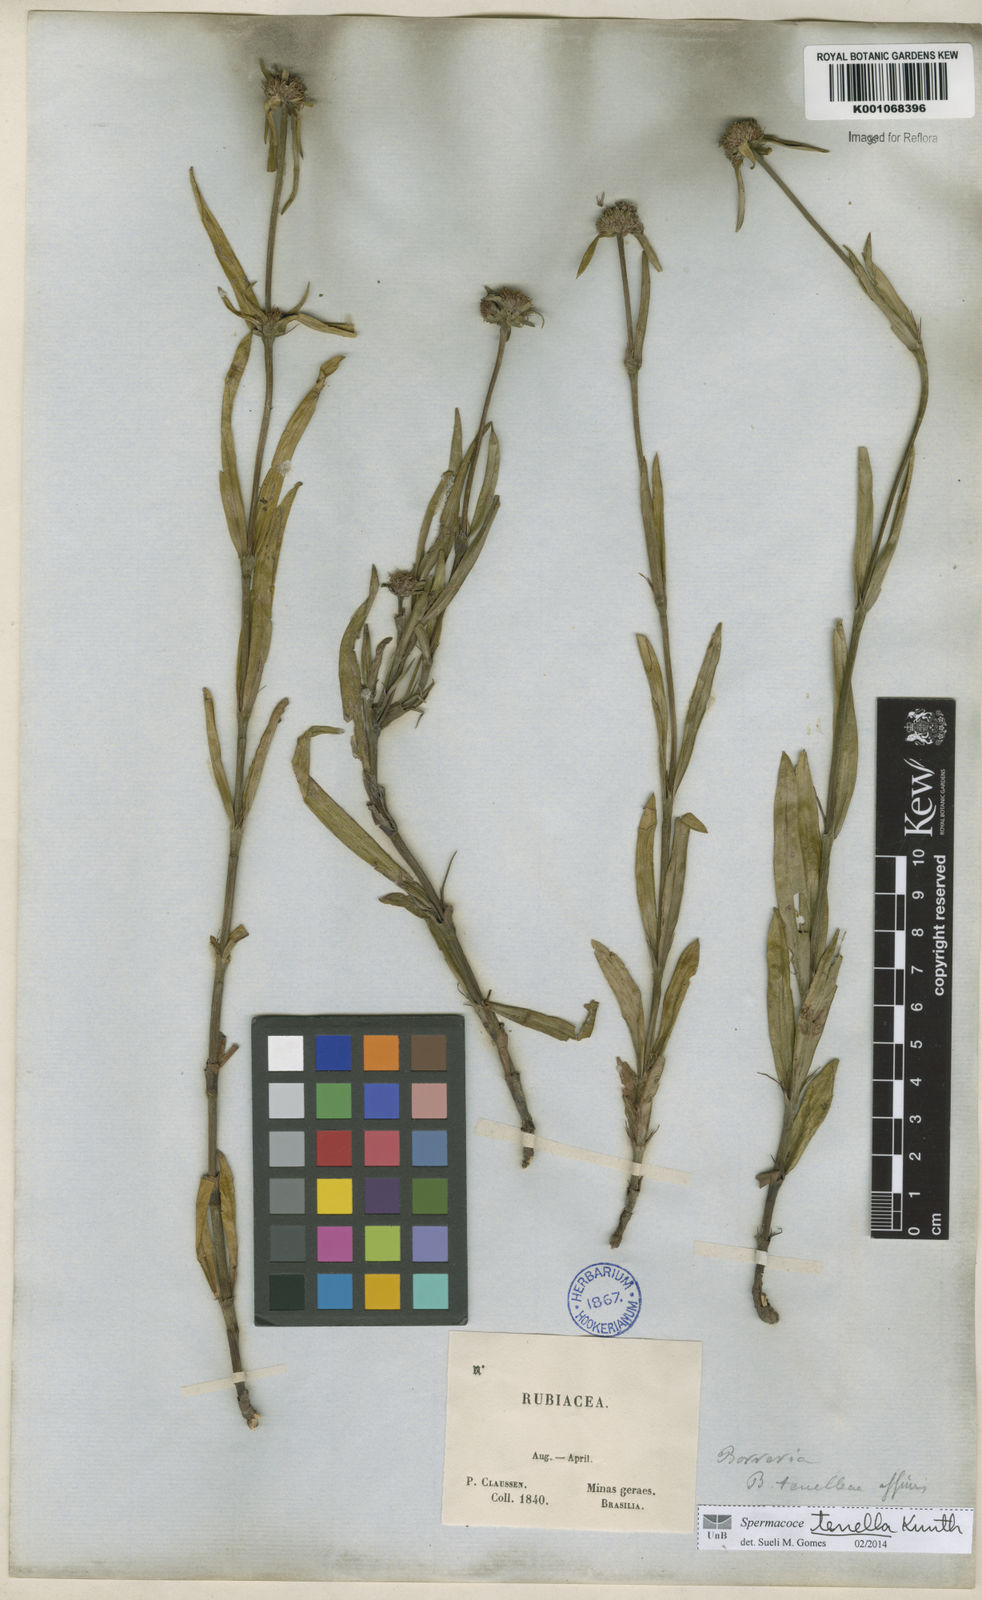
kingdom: Plantae
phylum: Tracheophyta
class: Magnoliopsida
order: Gentianales
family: Rubiaceae
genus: Spermacoce
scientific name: Spermacoce orinocensis
